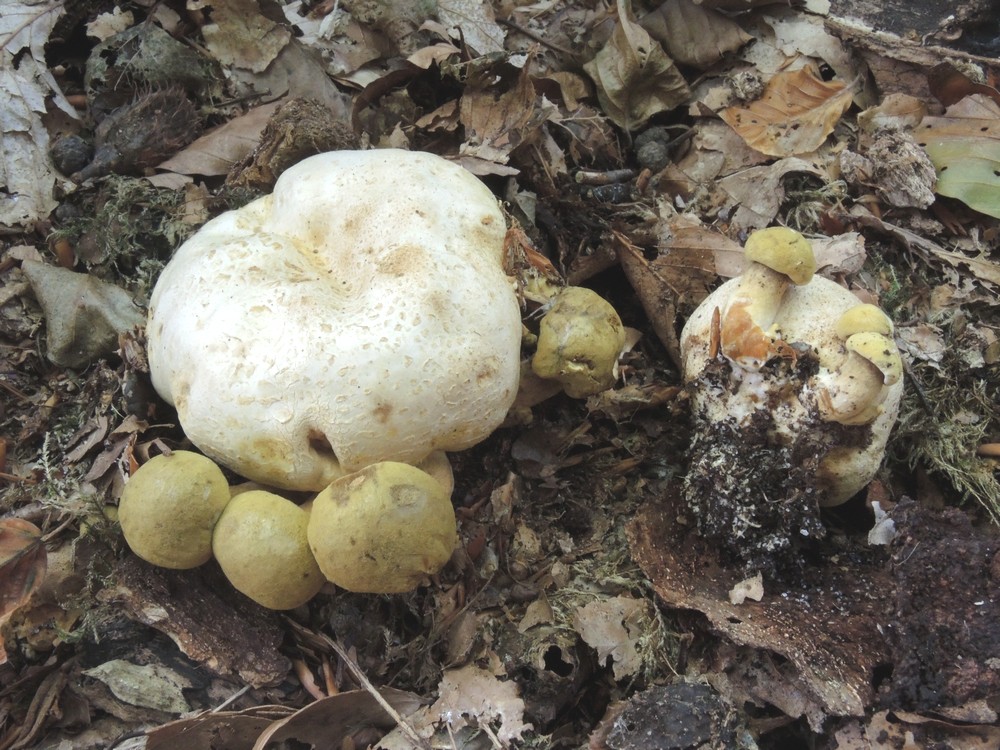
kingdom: Fungi
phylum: Basidiomycota
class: Agaricomycetes
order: Boletales
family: Boletaceae
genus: Pseudoboletus
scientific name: Pseudoboletus parasiticus
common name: snyltende rørhat
